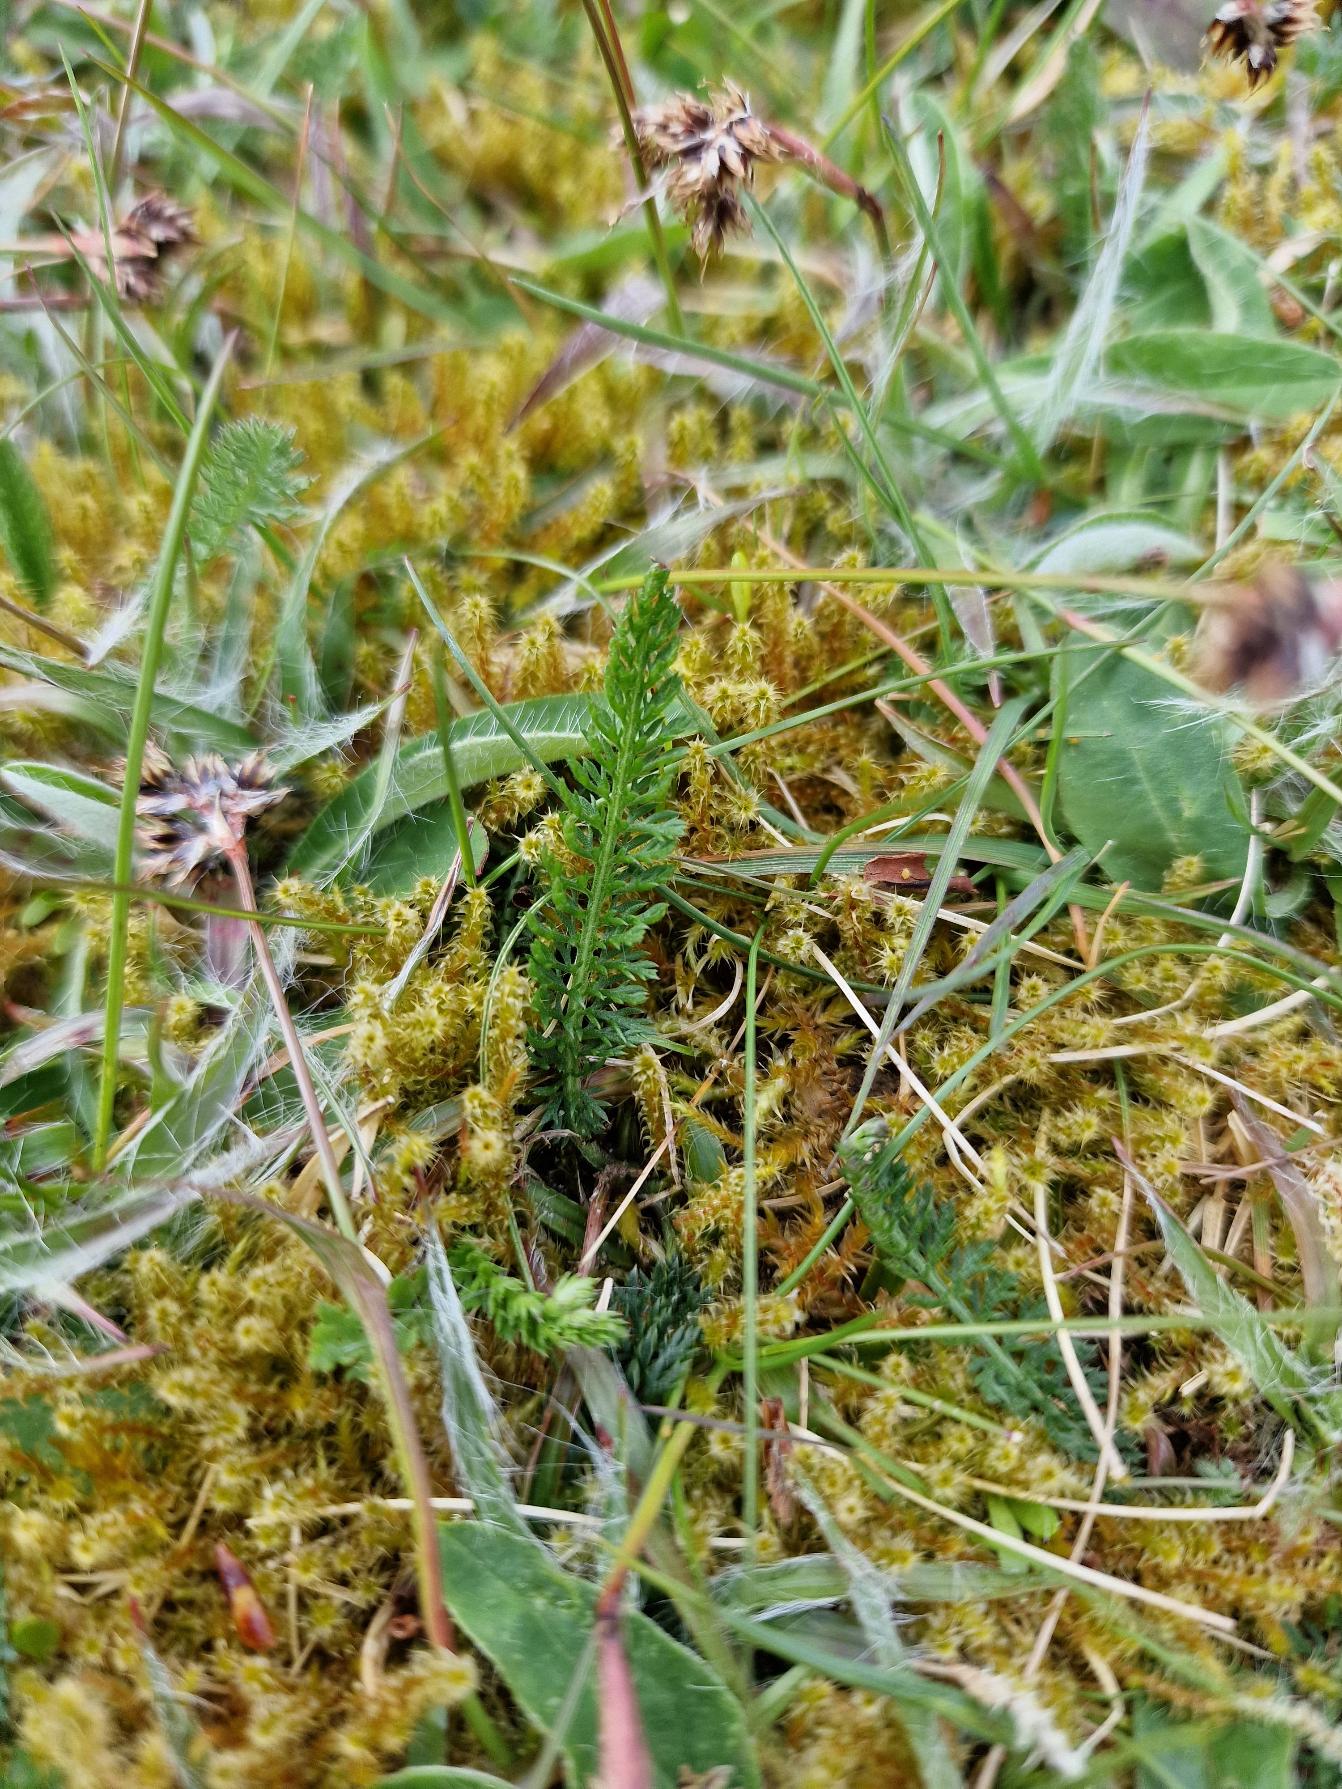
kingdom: Plantae
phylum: Tracheophyta
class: Magnoliopsida
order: Asterales
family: Asteraceae
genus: Achillea
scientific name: Achillea millefolium
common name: Almindelig røllike
